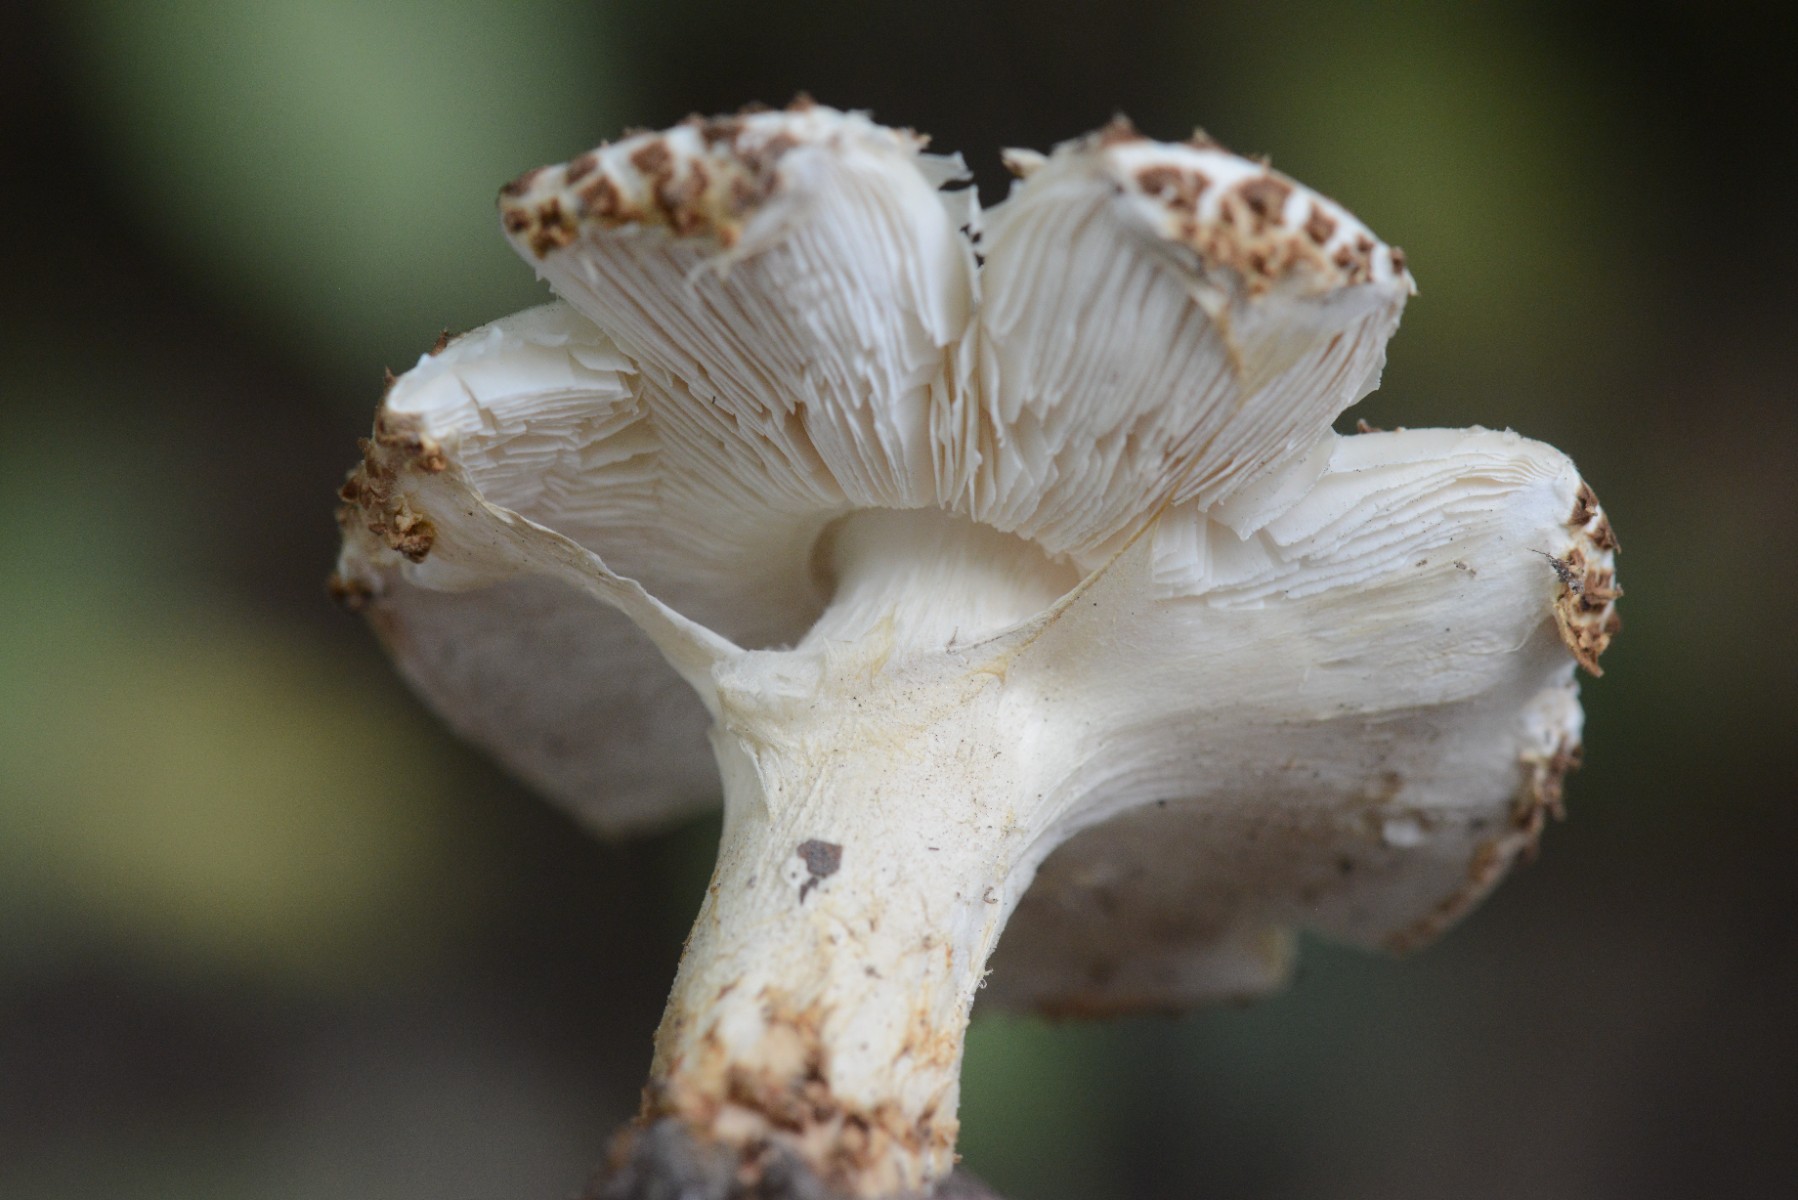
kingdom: Fungi
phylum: Basidiomycota
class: Agaricomycetes
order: Agaricales
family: Agaricaceae
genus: Echinoderma
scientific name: Echinoderma asperum
